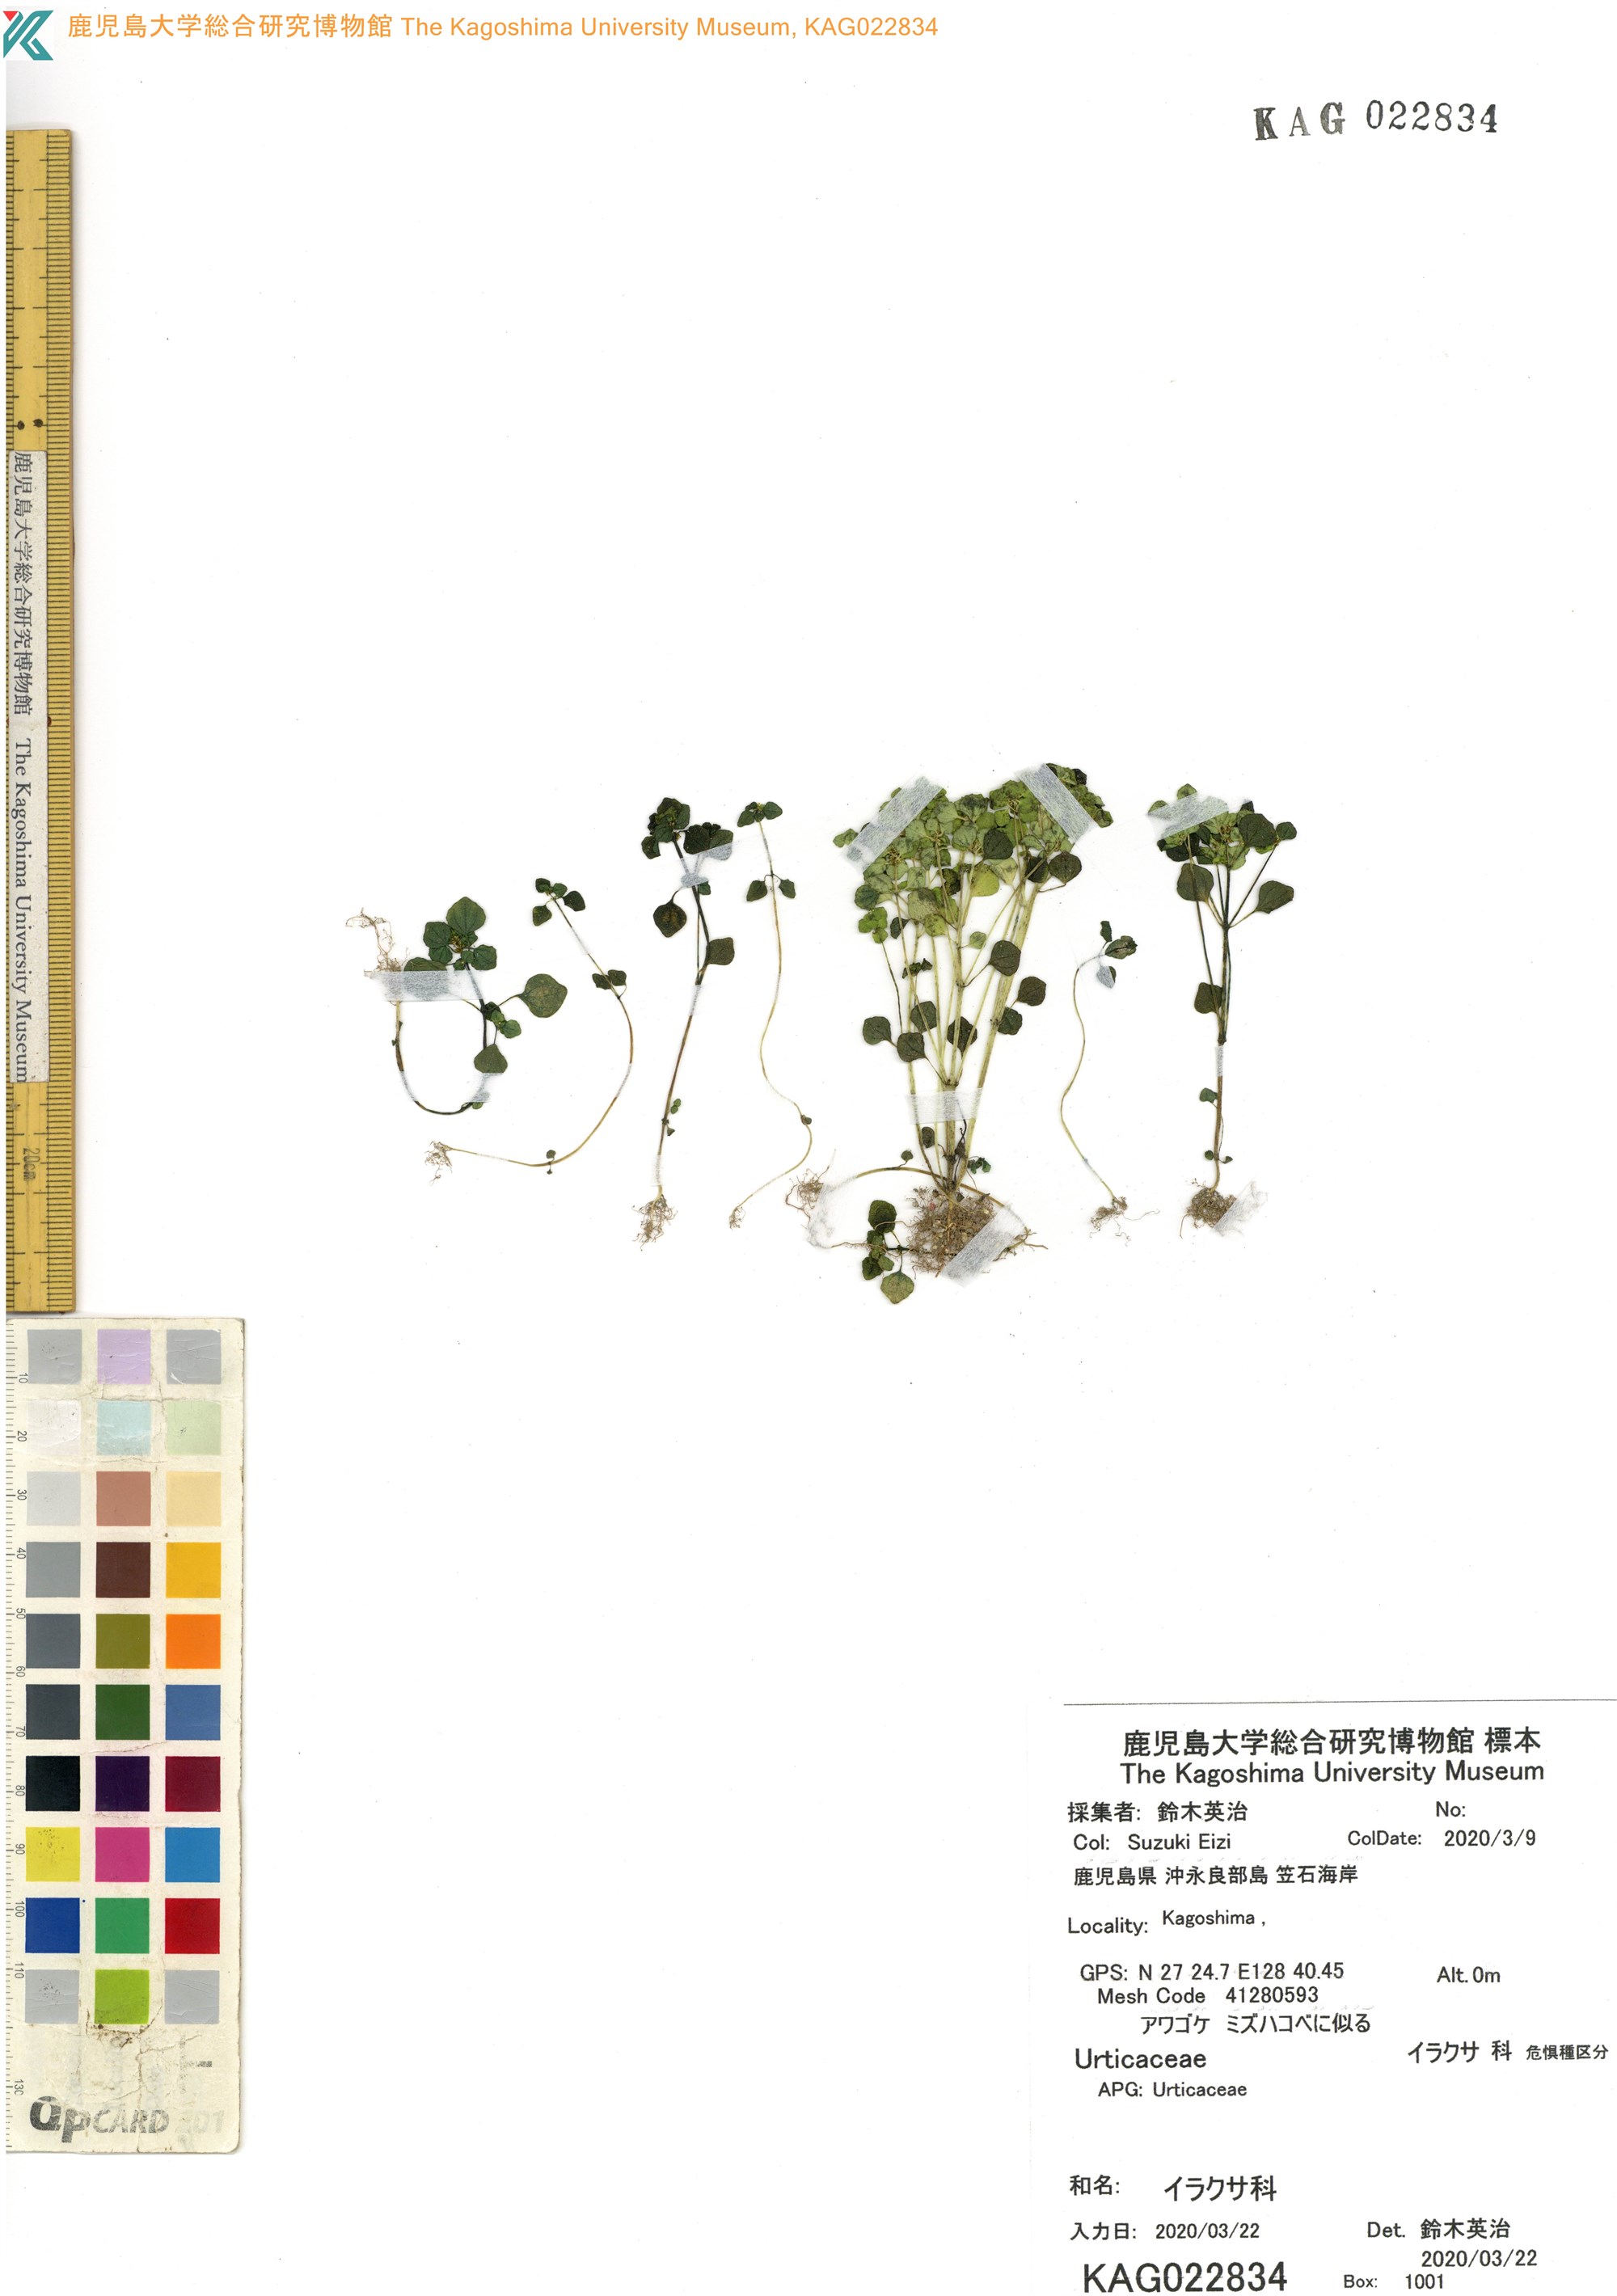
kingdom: Plantae
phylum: Tracheophyta
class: Magnoliopsida
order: Rosales
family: Urticaceae
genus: Pilea
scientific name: Pilea peploides
